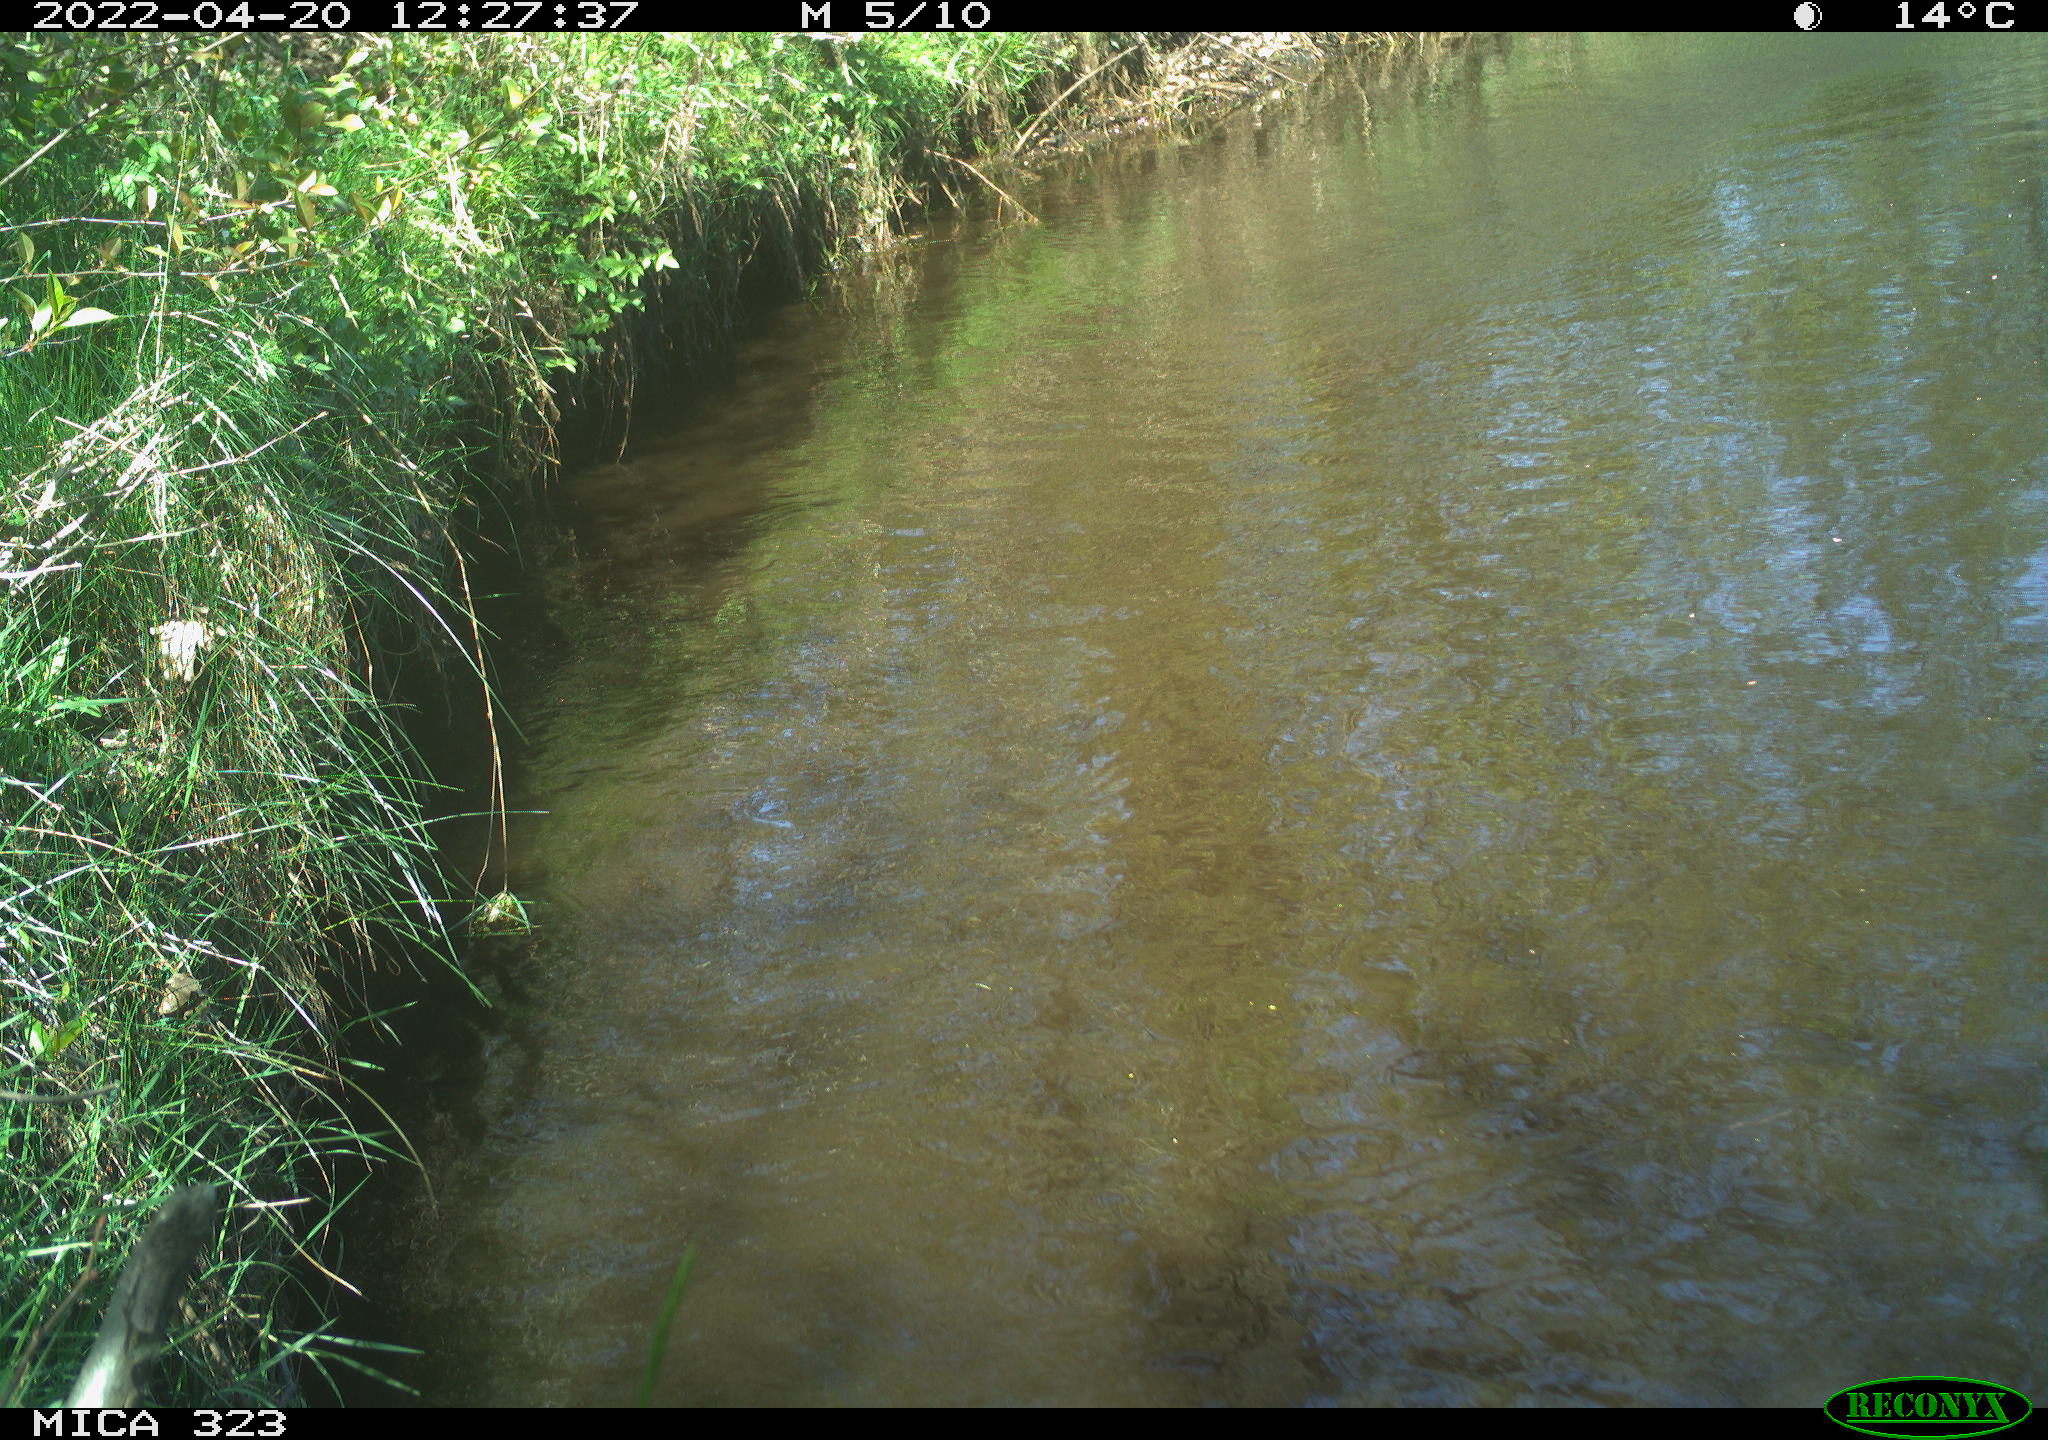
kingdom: Animalia
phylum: Chordata
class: Aves
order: Anseriformes
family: Anatidae
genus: Anas
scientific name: Anas
